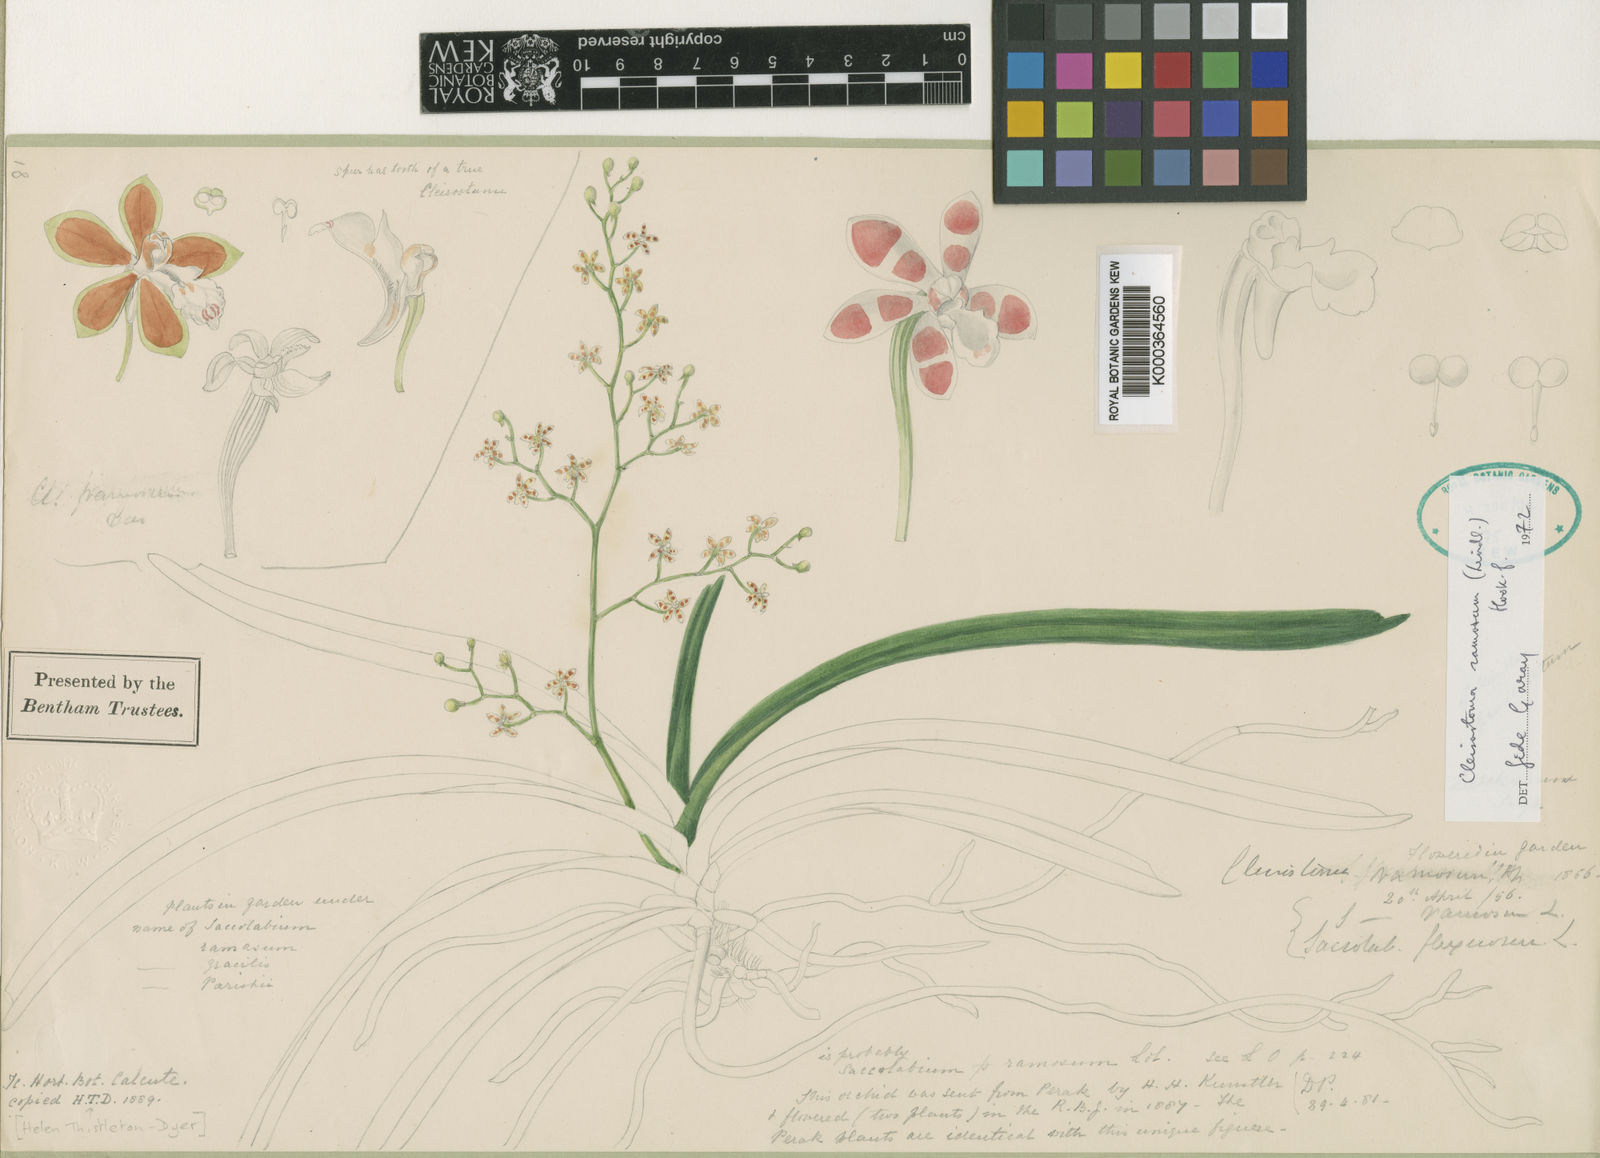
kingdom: Plantae
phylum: Tracheophyta
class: Liliopsida
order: Asparagales
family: Orchidaceae
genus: Trichoglottis
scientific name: Trichoglottis ramosa
